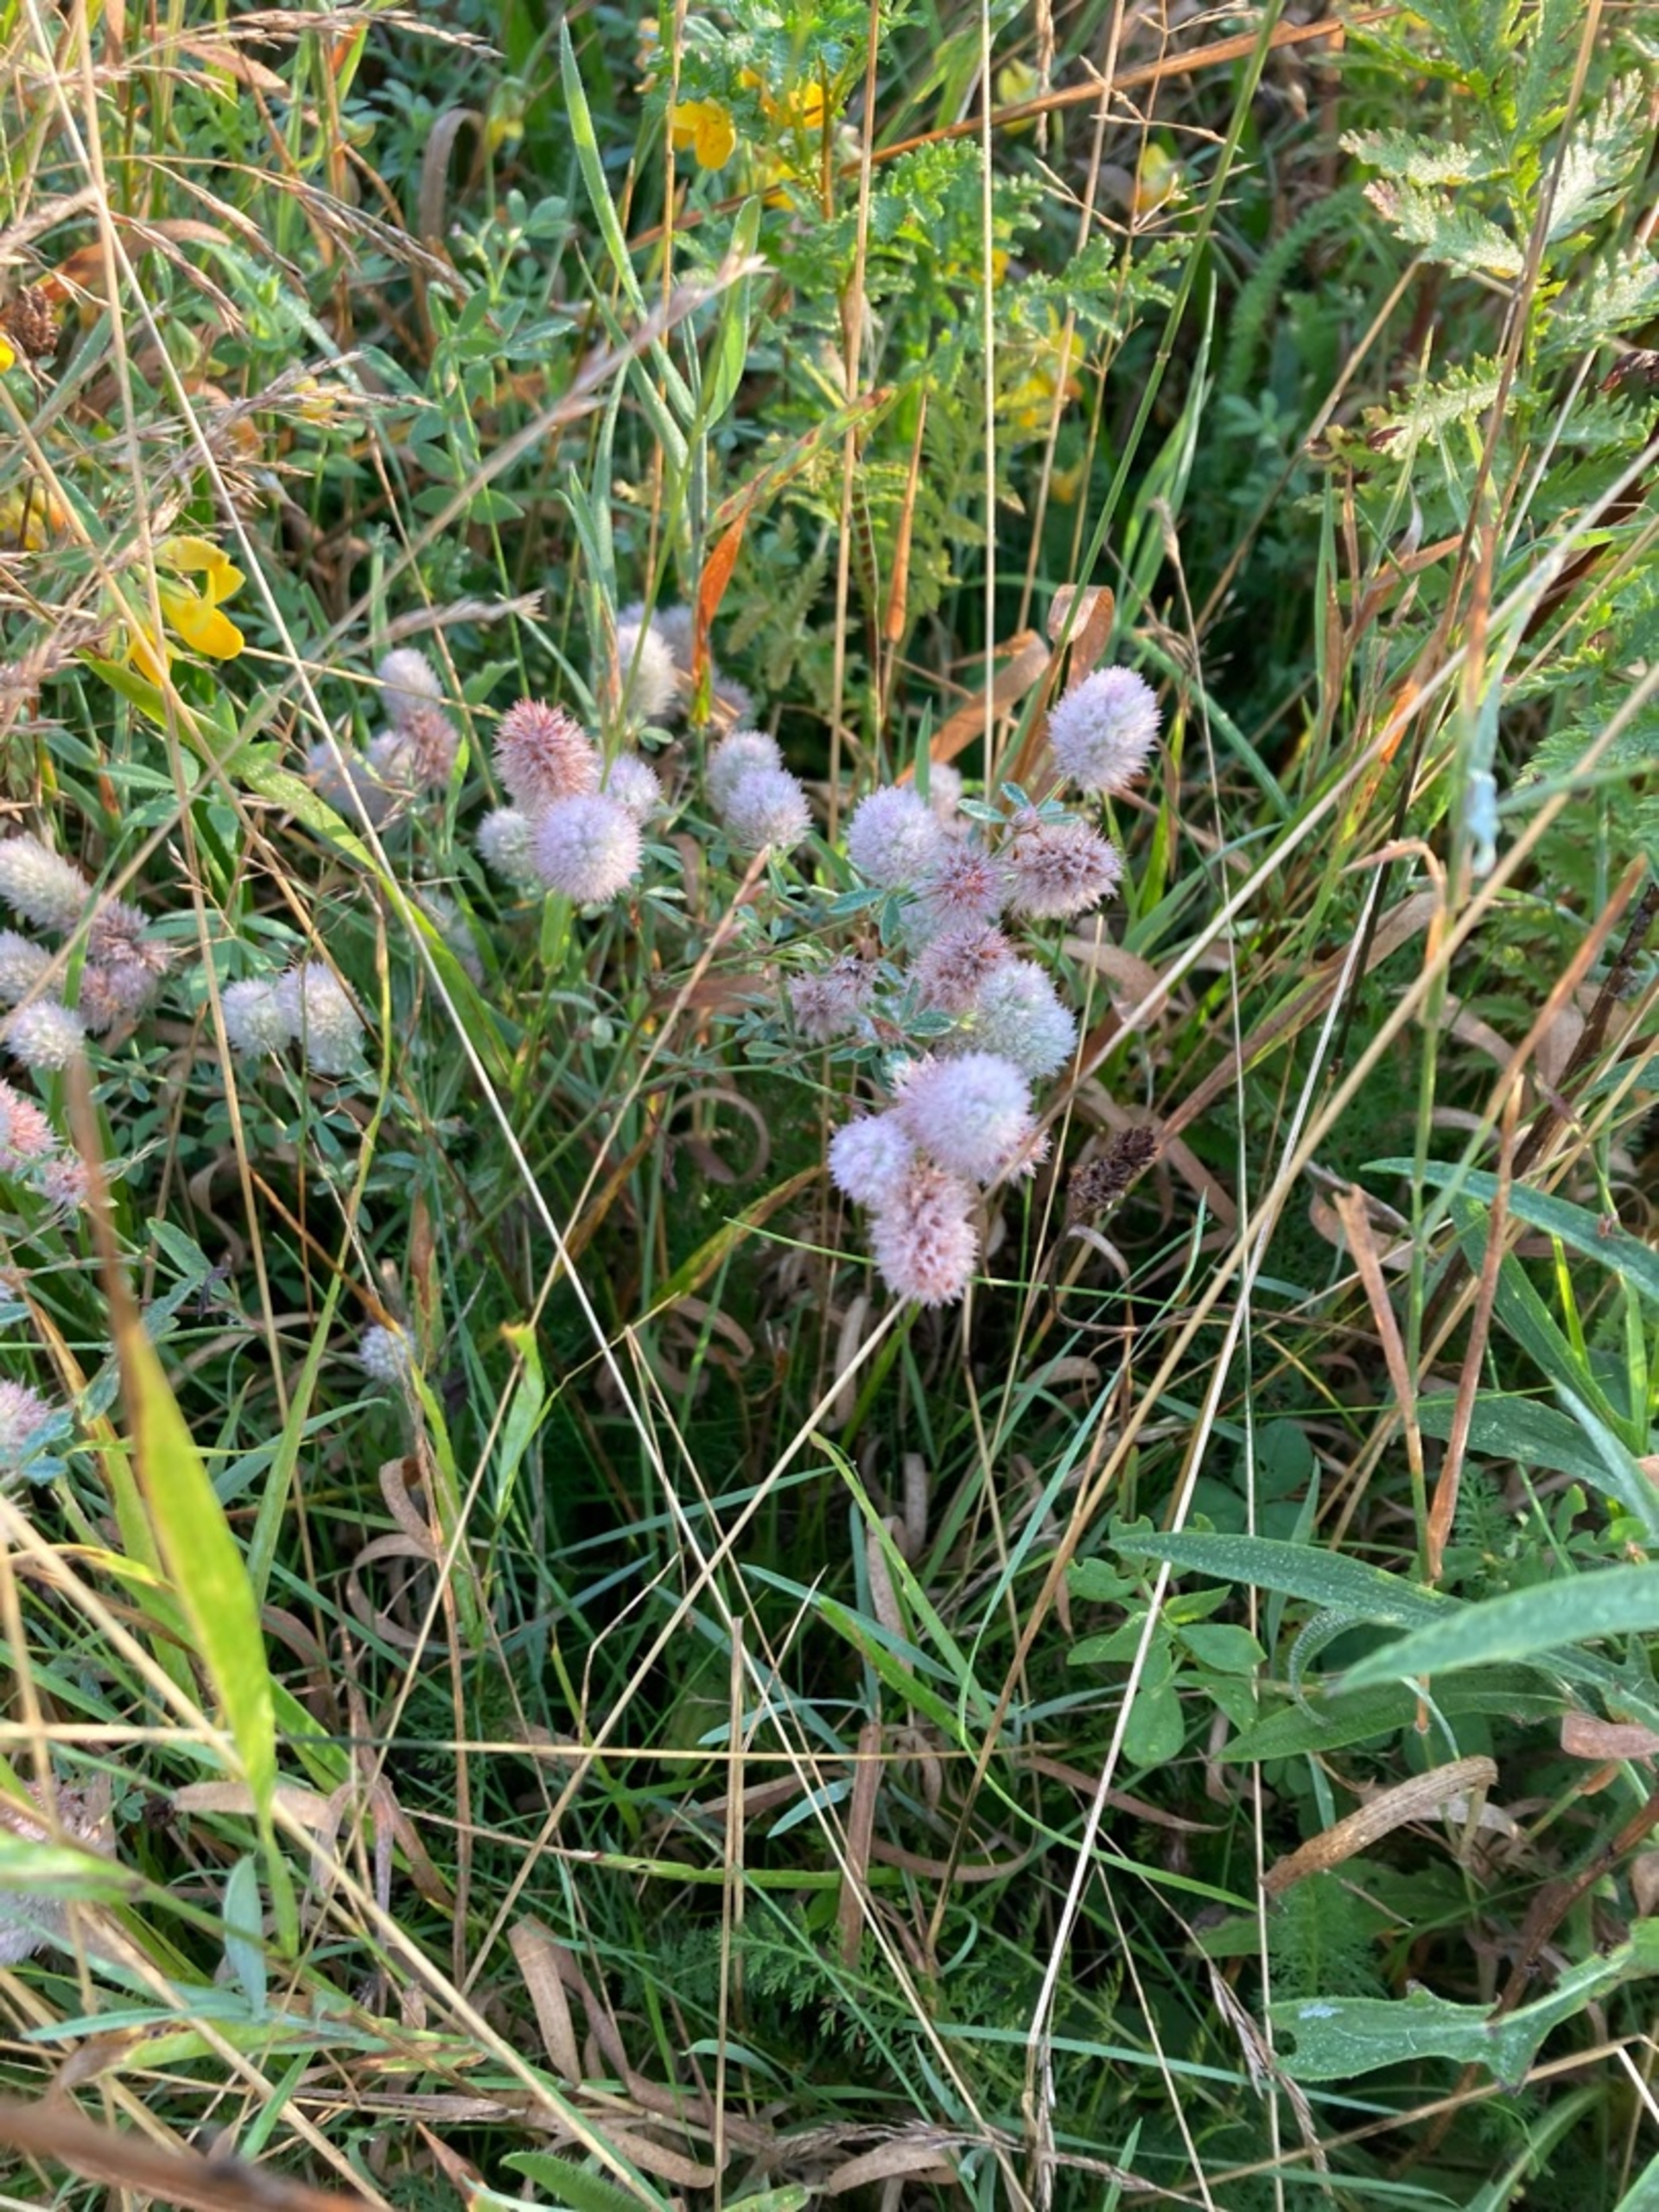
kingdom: Plantae
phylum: Tracheophyta
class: Magnoliopsida
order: Fabales
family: Fabaceae
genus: Trifolium
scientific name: Trifolium arvense
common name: Hare-kløver
